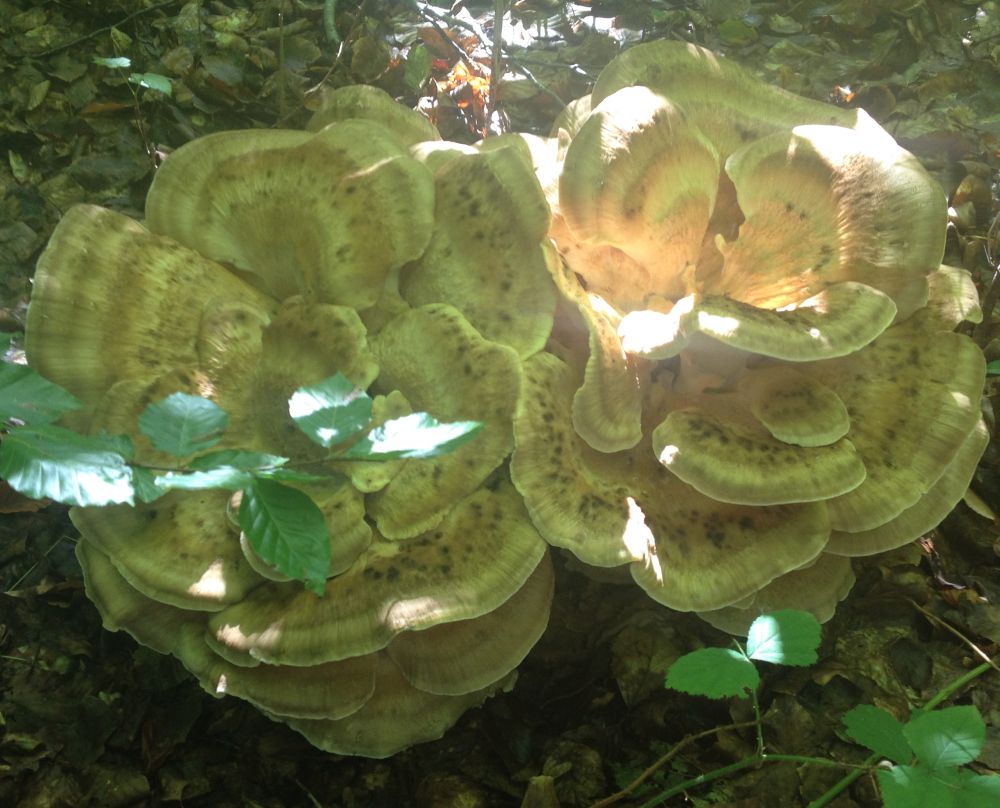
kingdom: Fungi
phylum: Basidiomycota
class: Agaricomycetes
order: Polyporales
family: Meripilaceae
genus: Meripilus
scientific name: Meripilus giganteus
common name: kæmpeporesvamp
